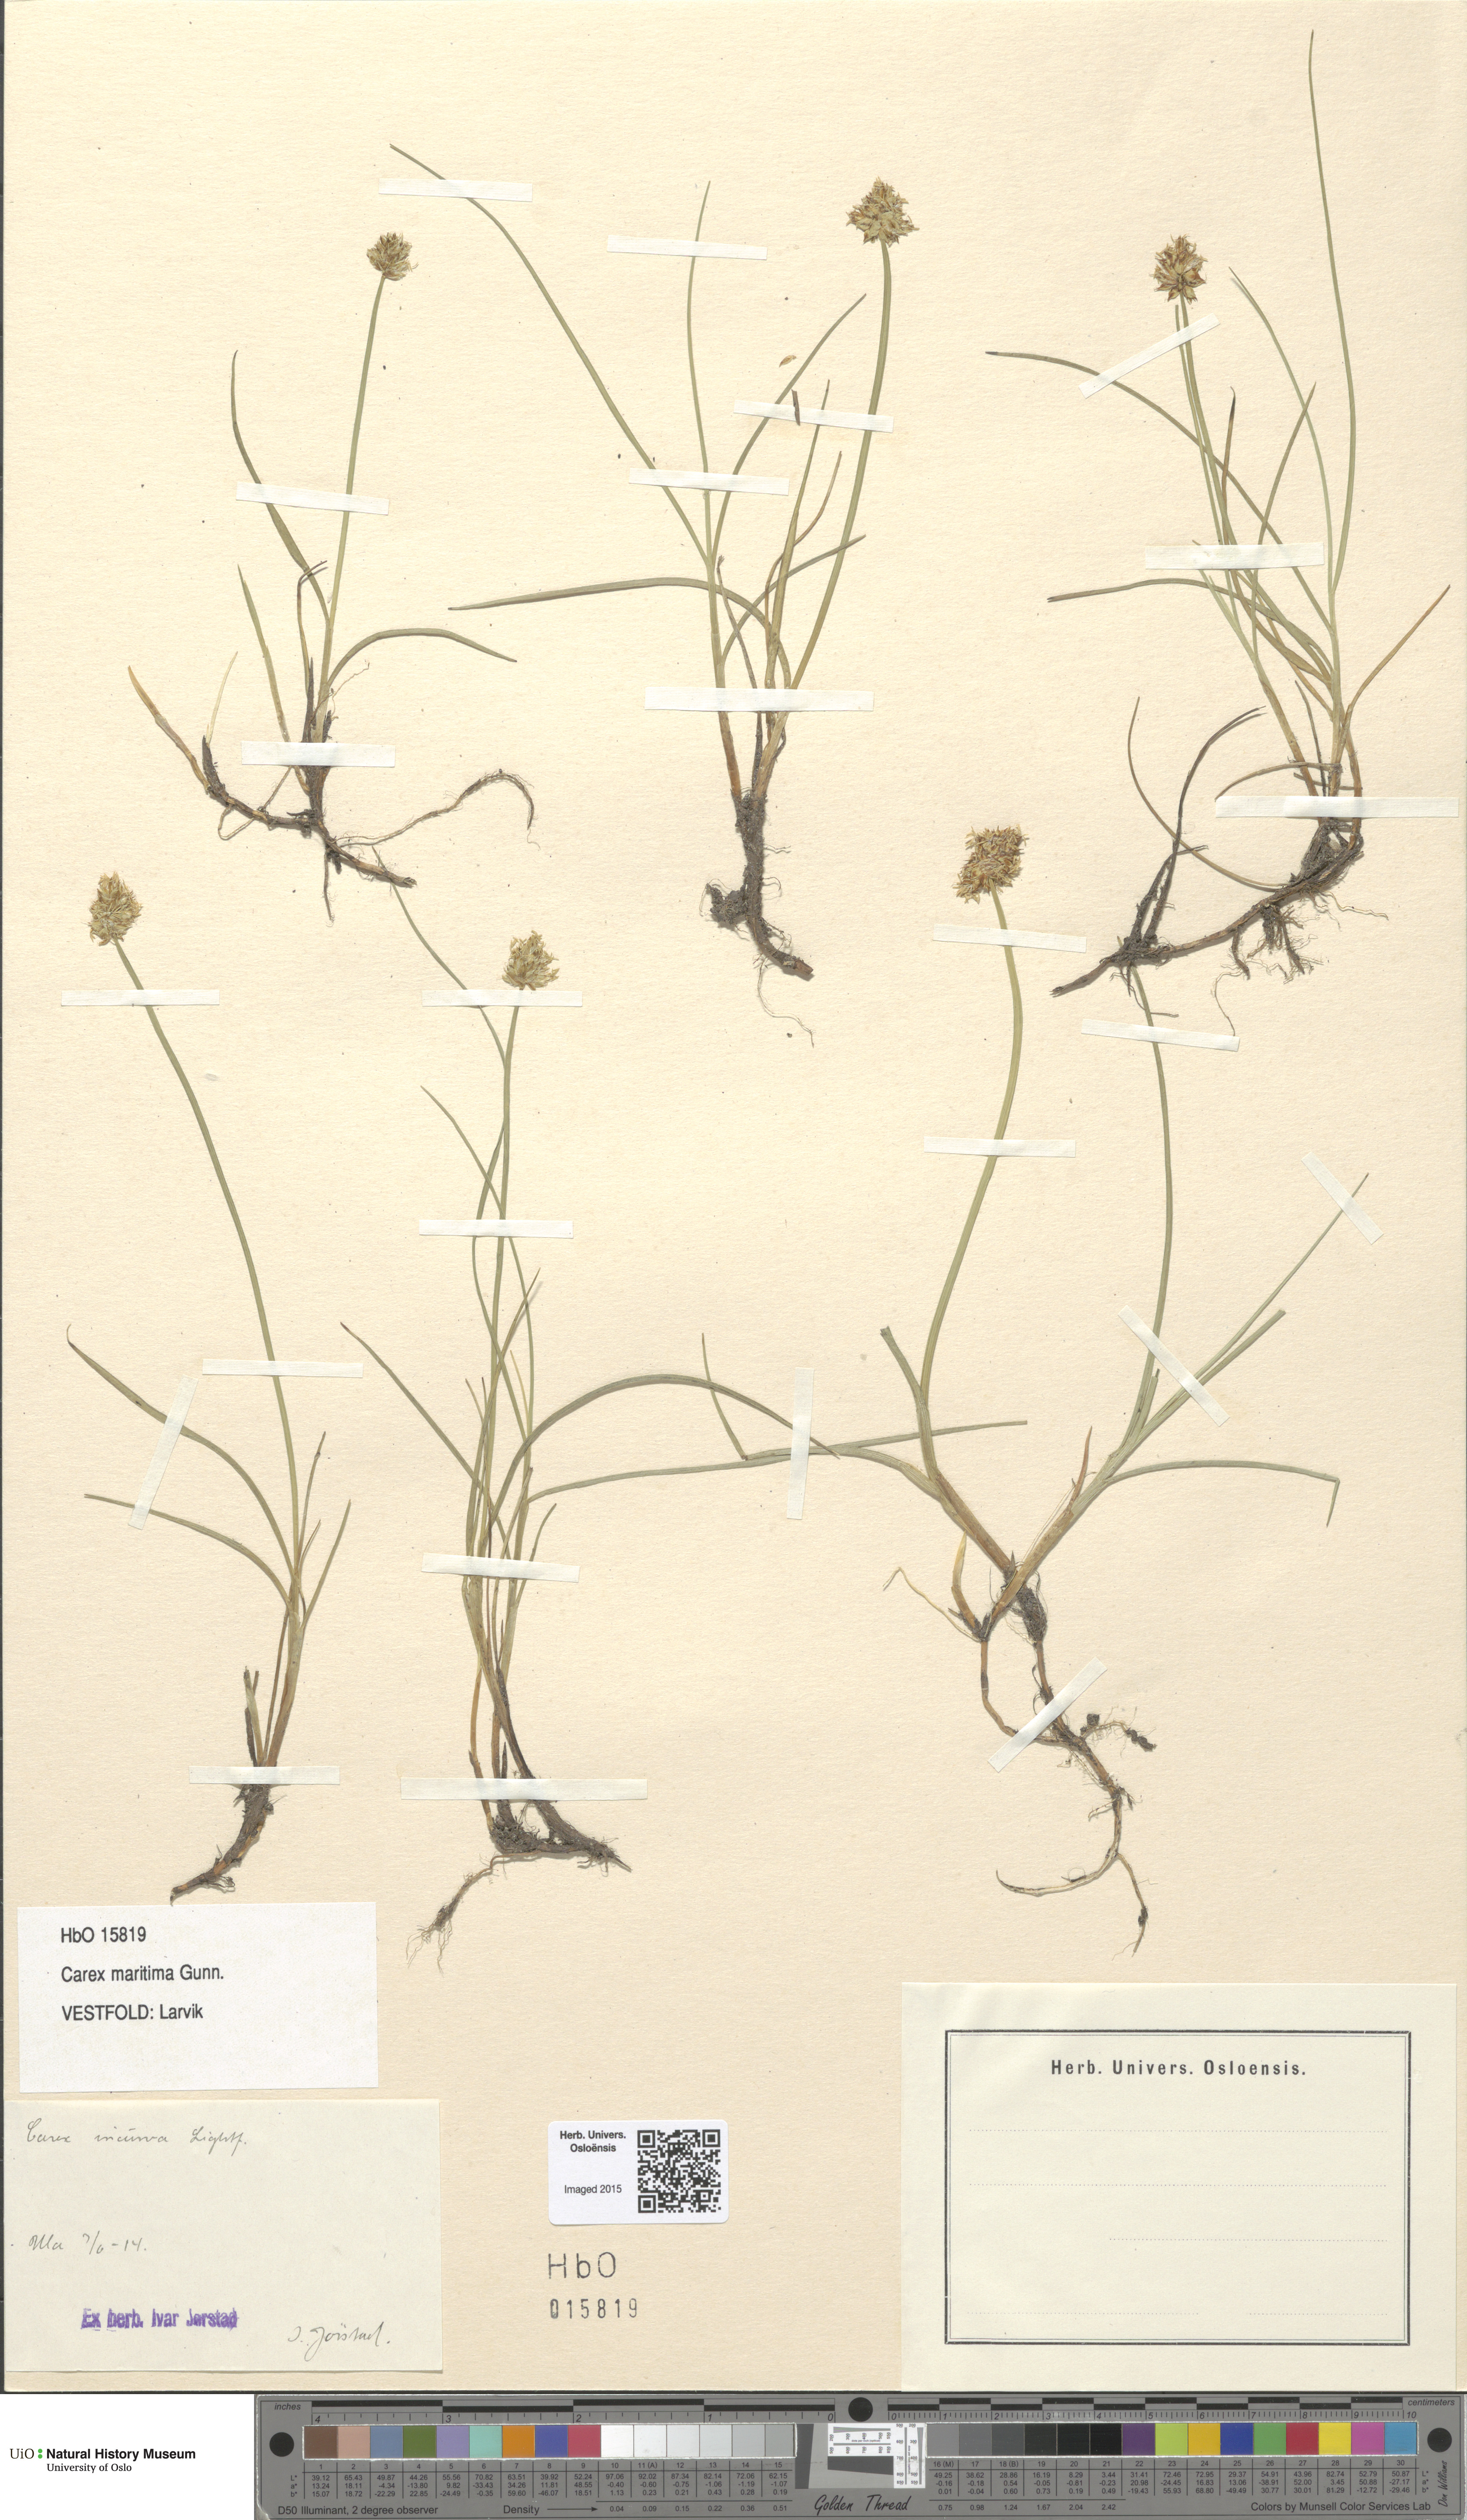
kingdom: Plantae
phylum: Tracheophyta
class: Liliopsida
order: Poales
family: Cyperaceae
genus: Carex
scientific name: Carex maritima
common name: Curved sedge
